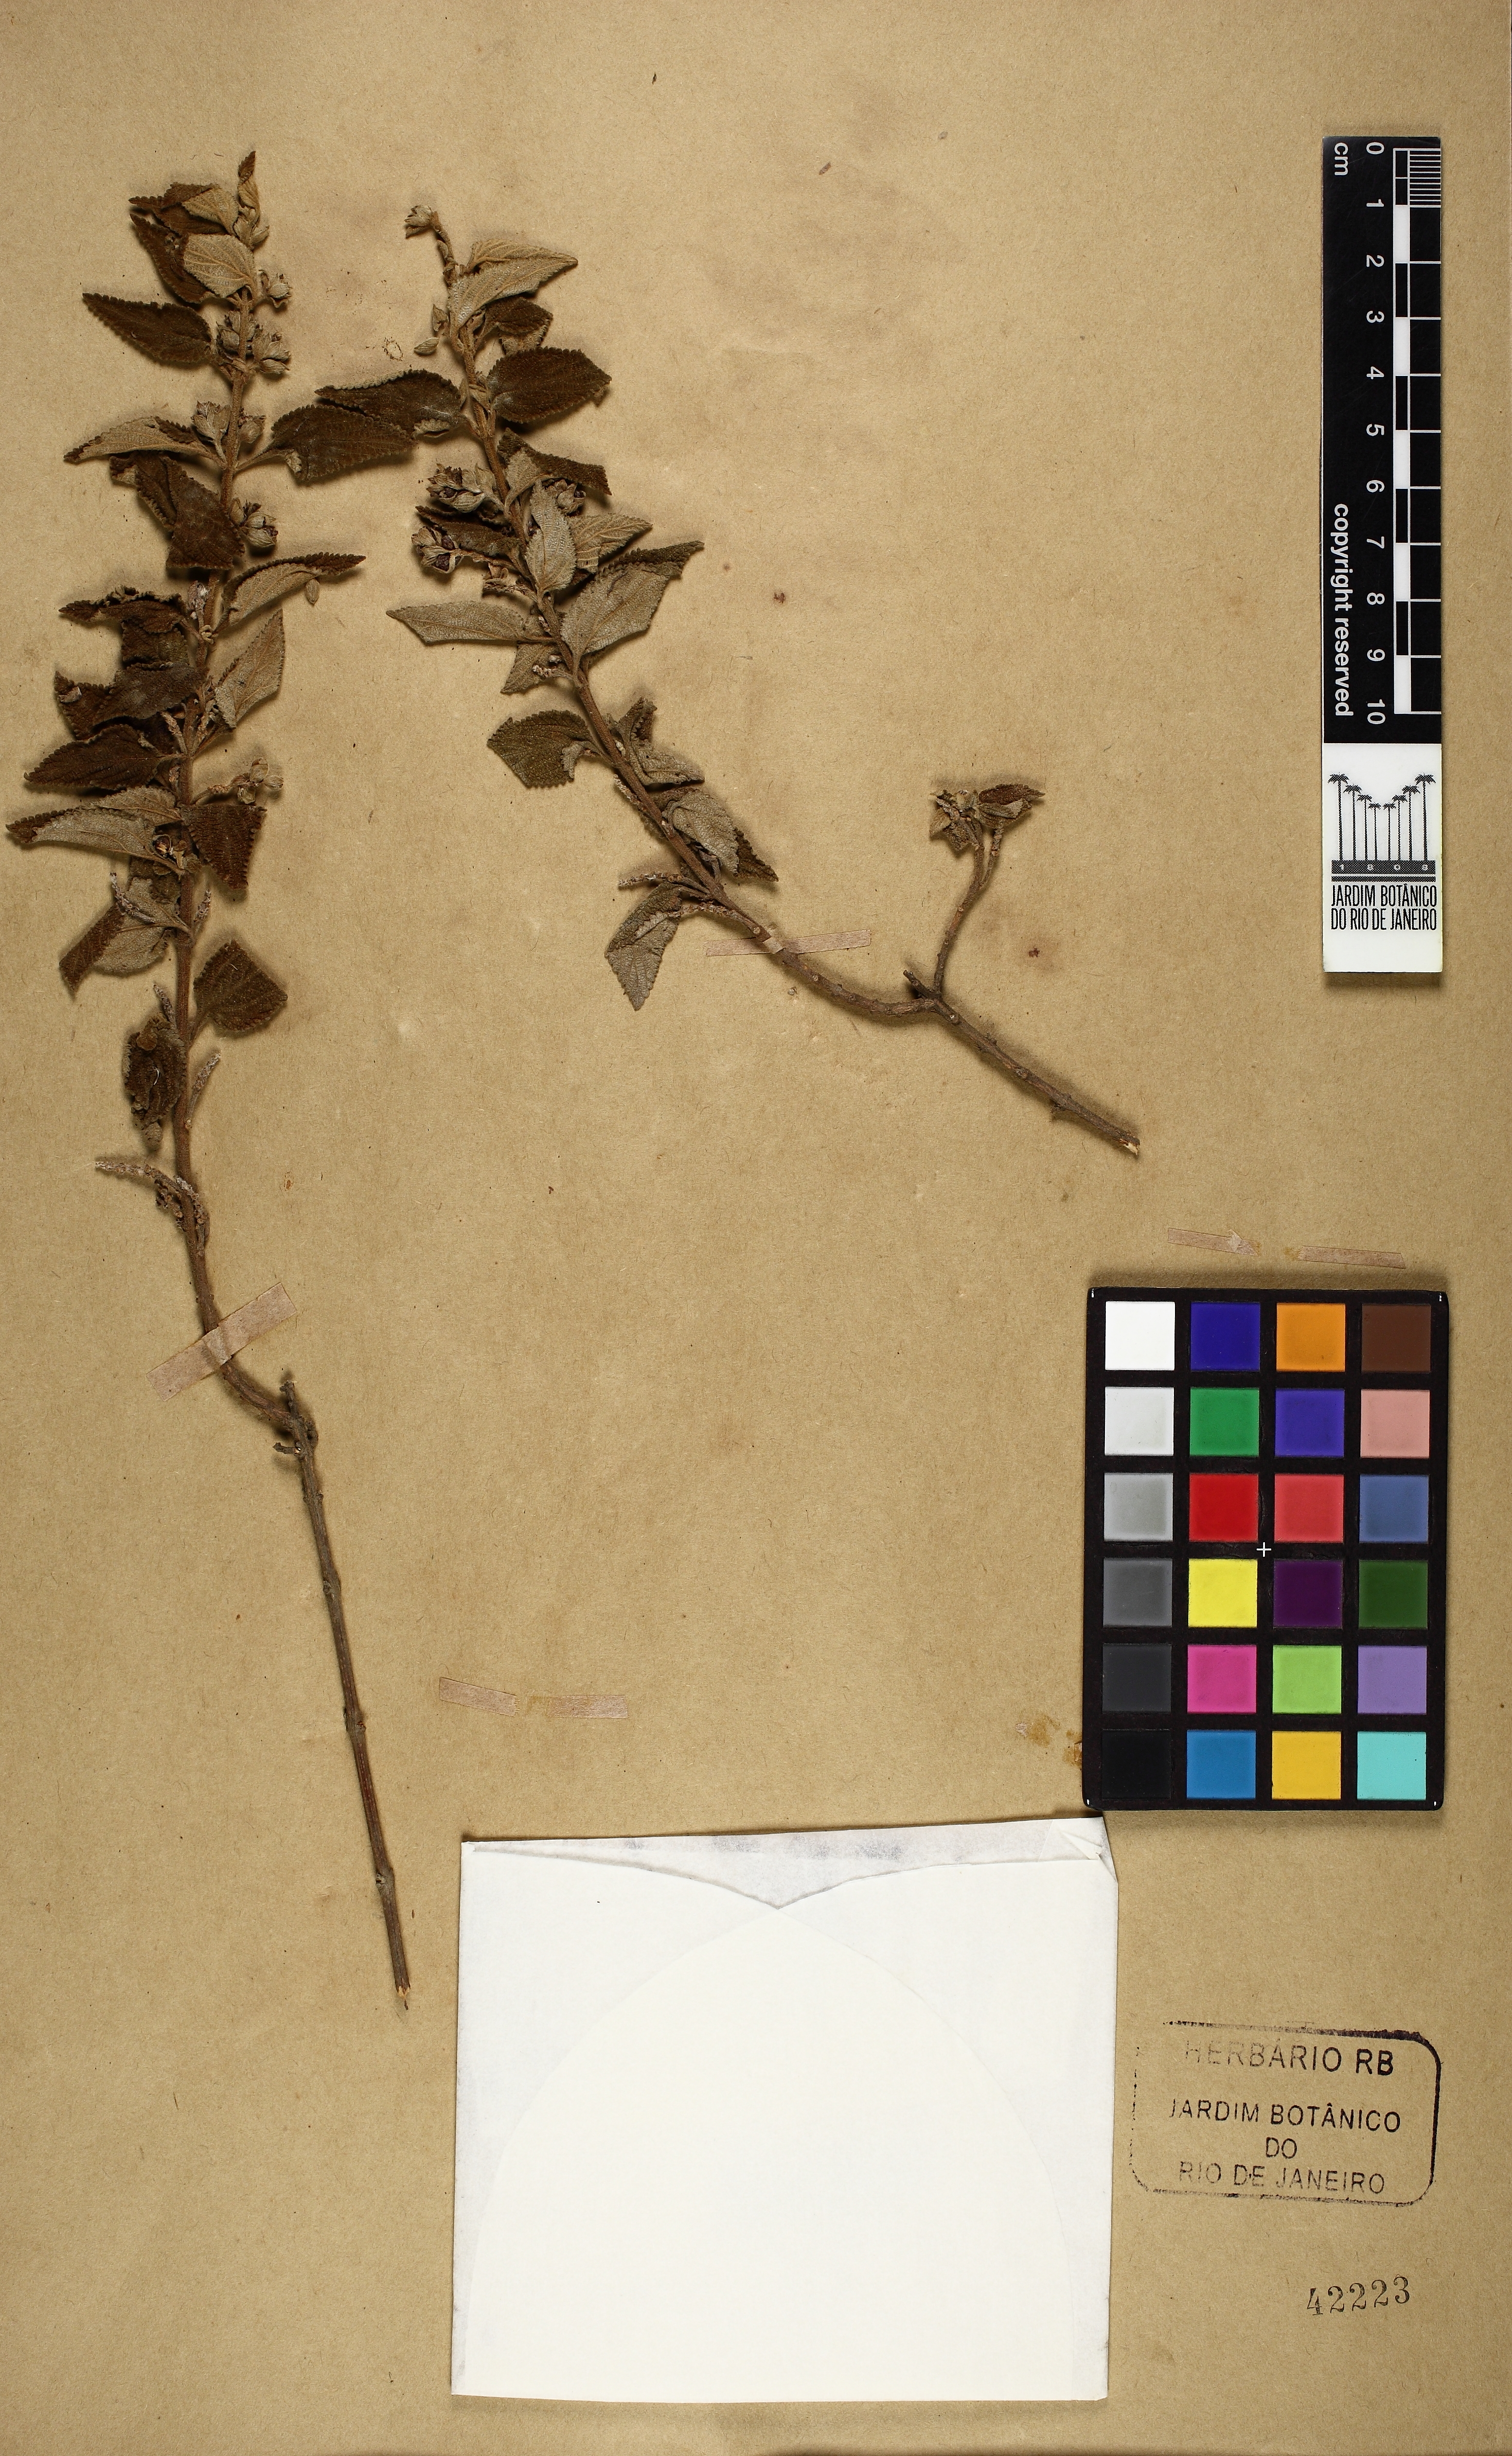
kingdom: Plantae
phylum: Tracheophyta
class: Magnoliopsida
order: Lamiales
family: Verbenaceae
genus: Lantana
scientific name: Lantana hypoleuca
